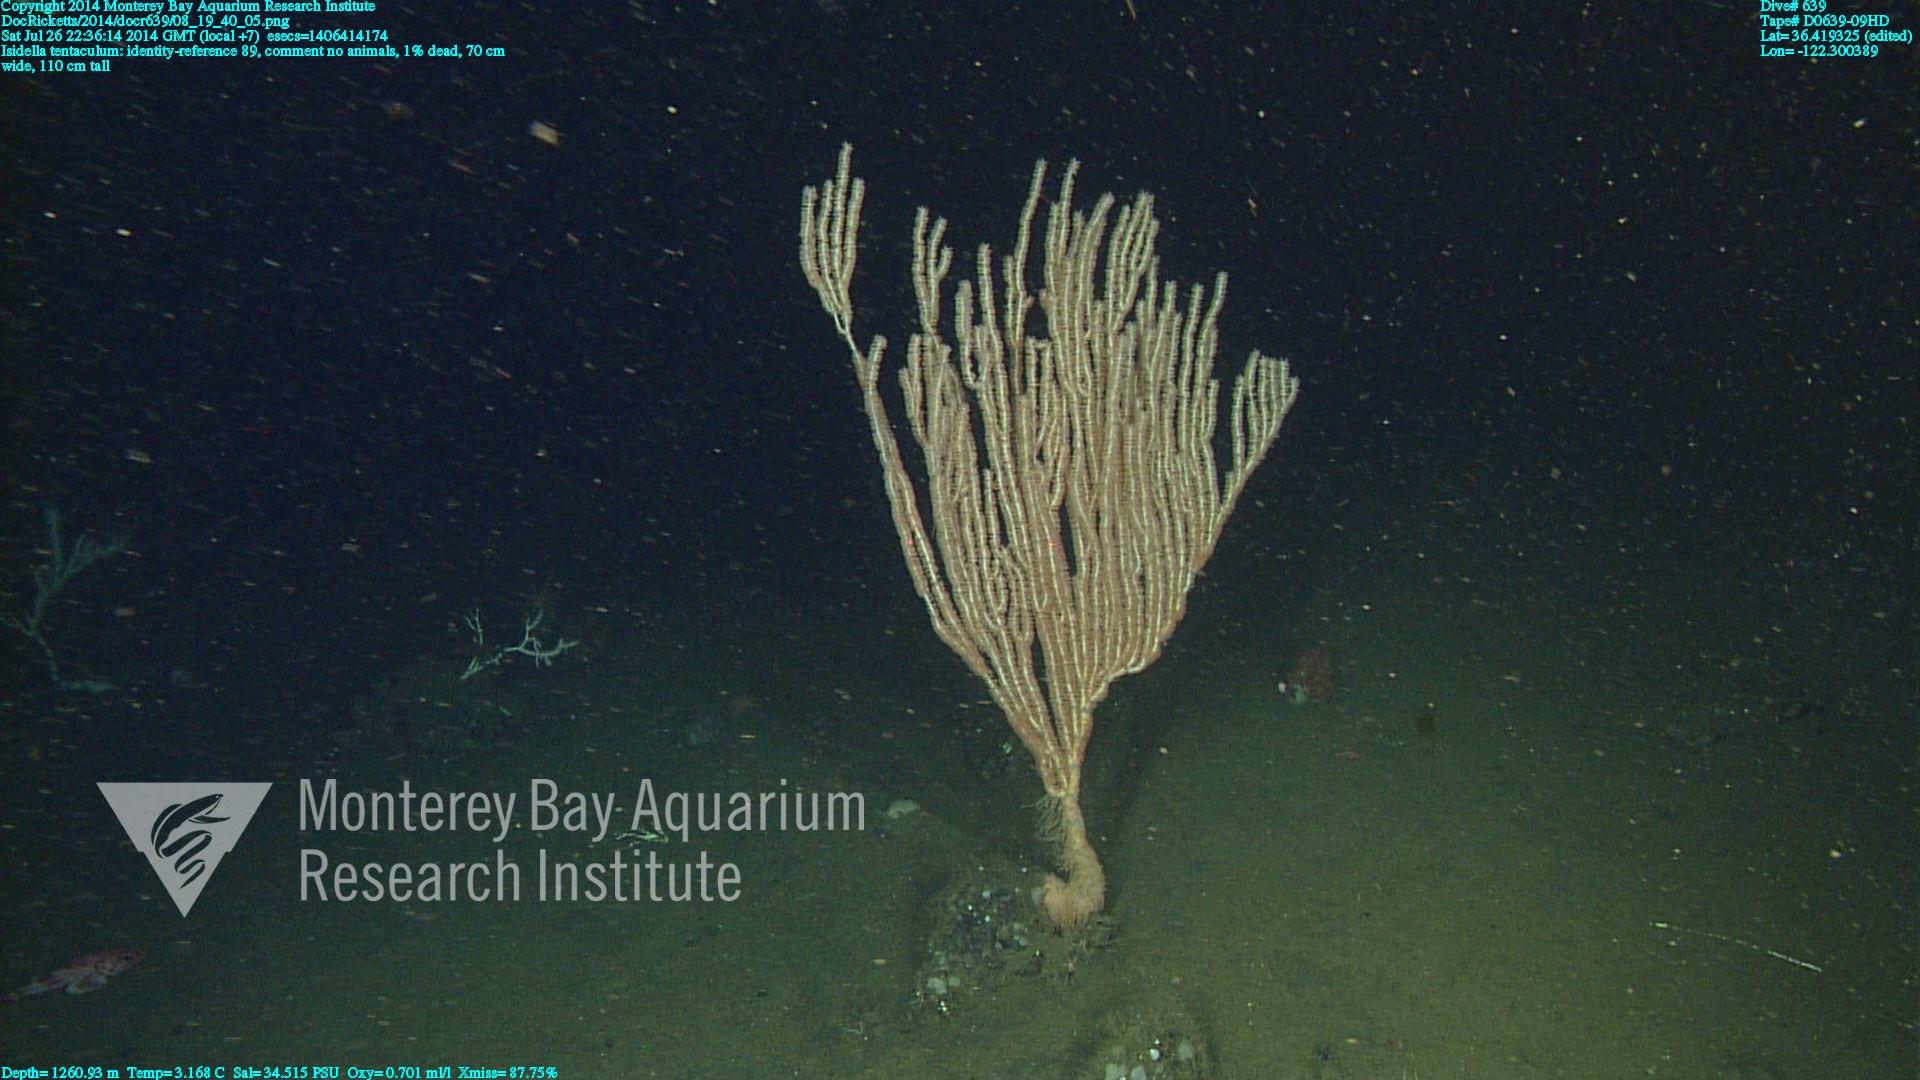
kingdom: Animalia
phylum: Cnidaria
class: Anthozoa
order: Scleralcyonacea
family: Keratoisididae
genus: Isidella
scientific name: Isidella tentaculum
